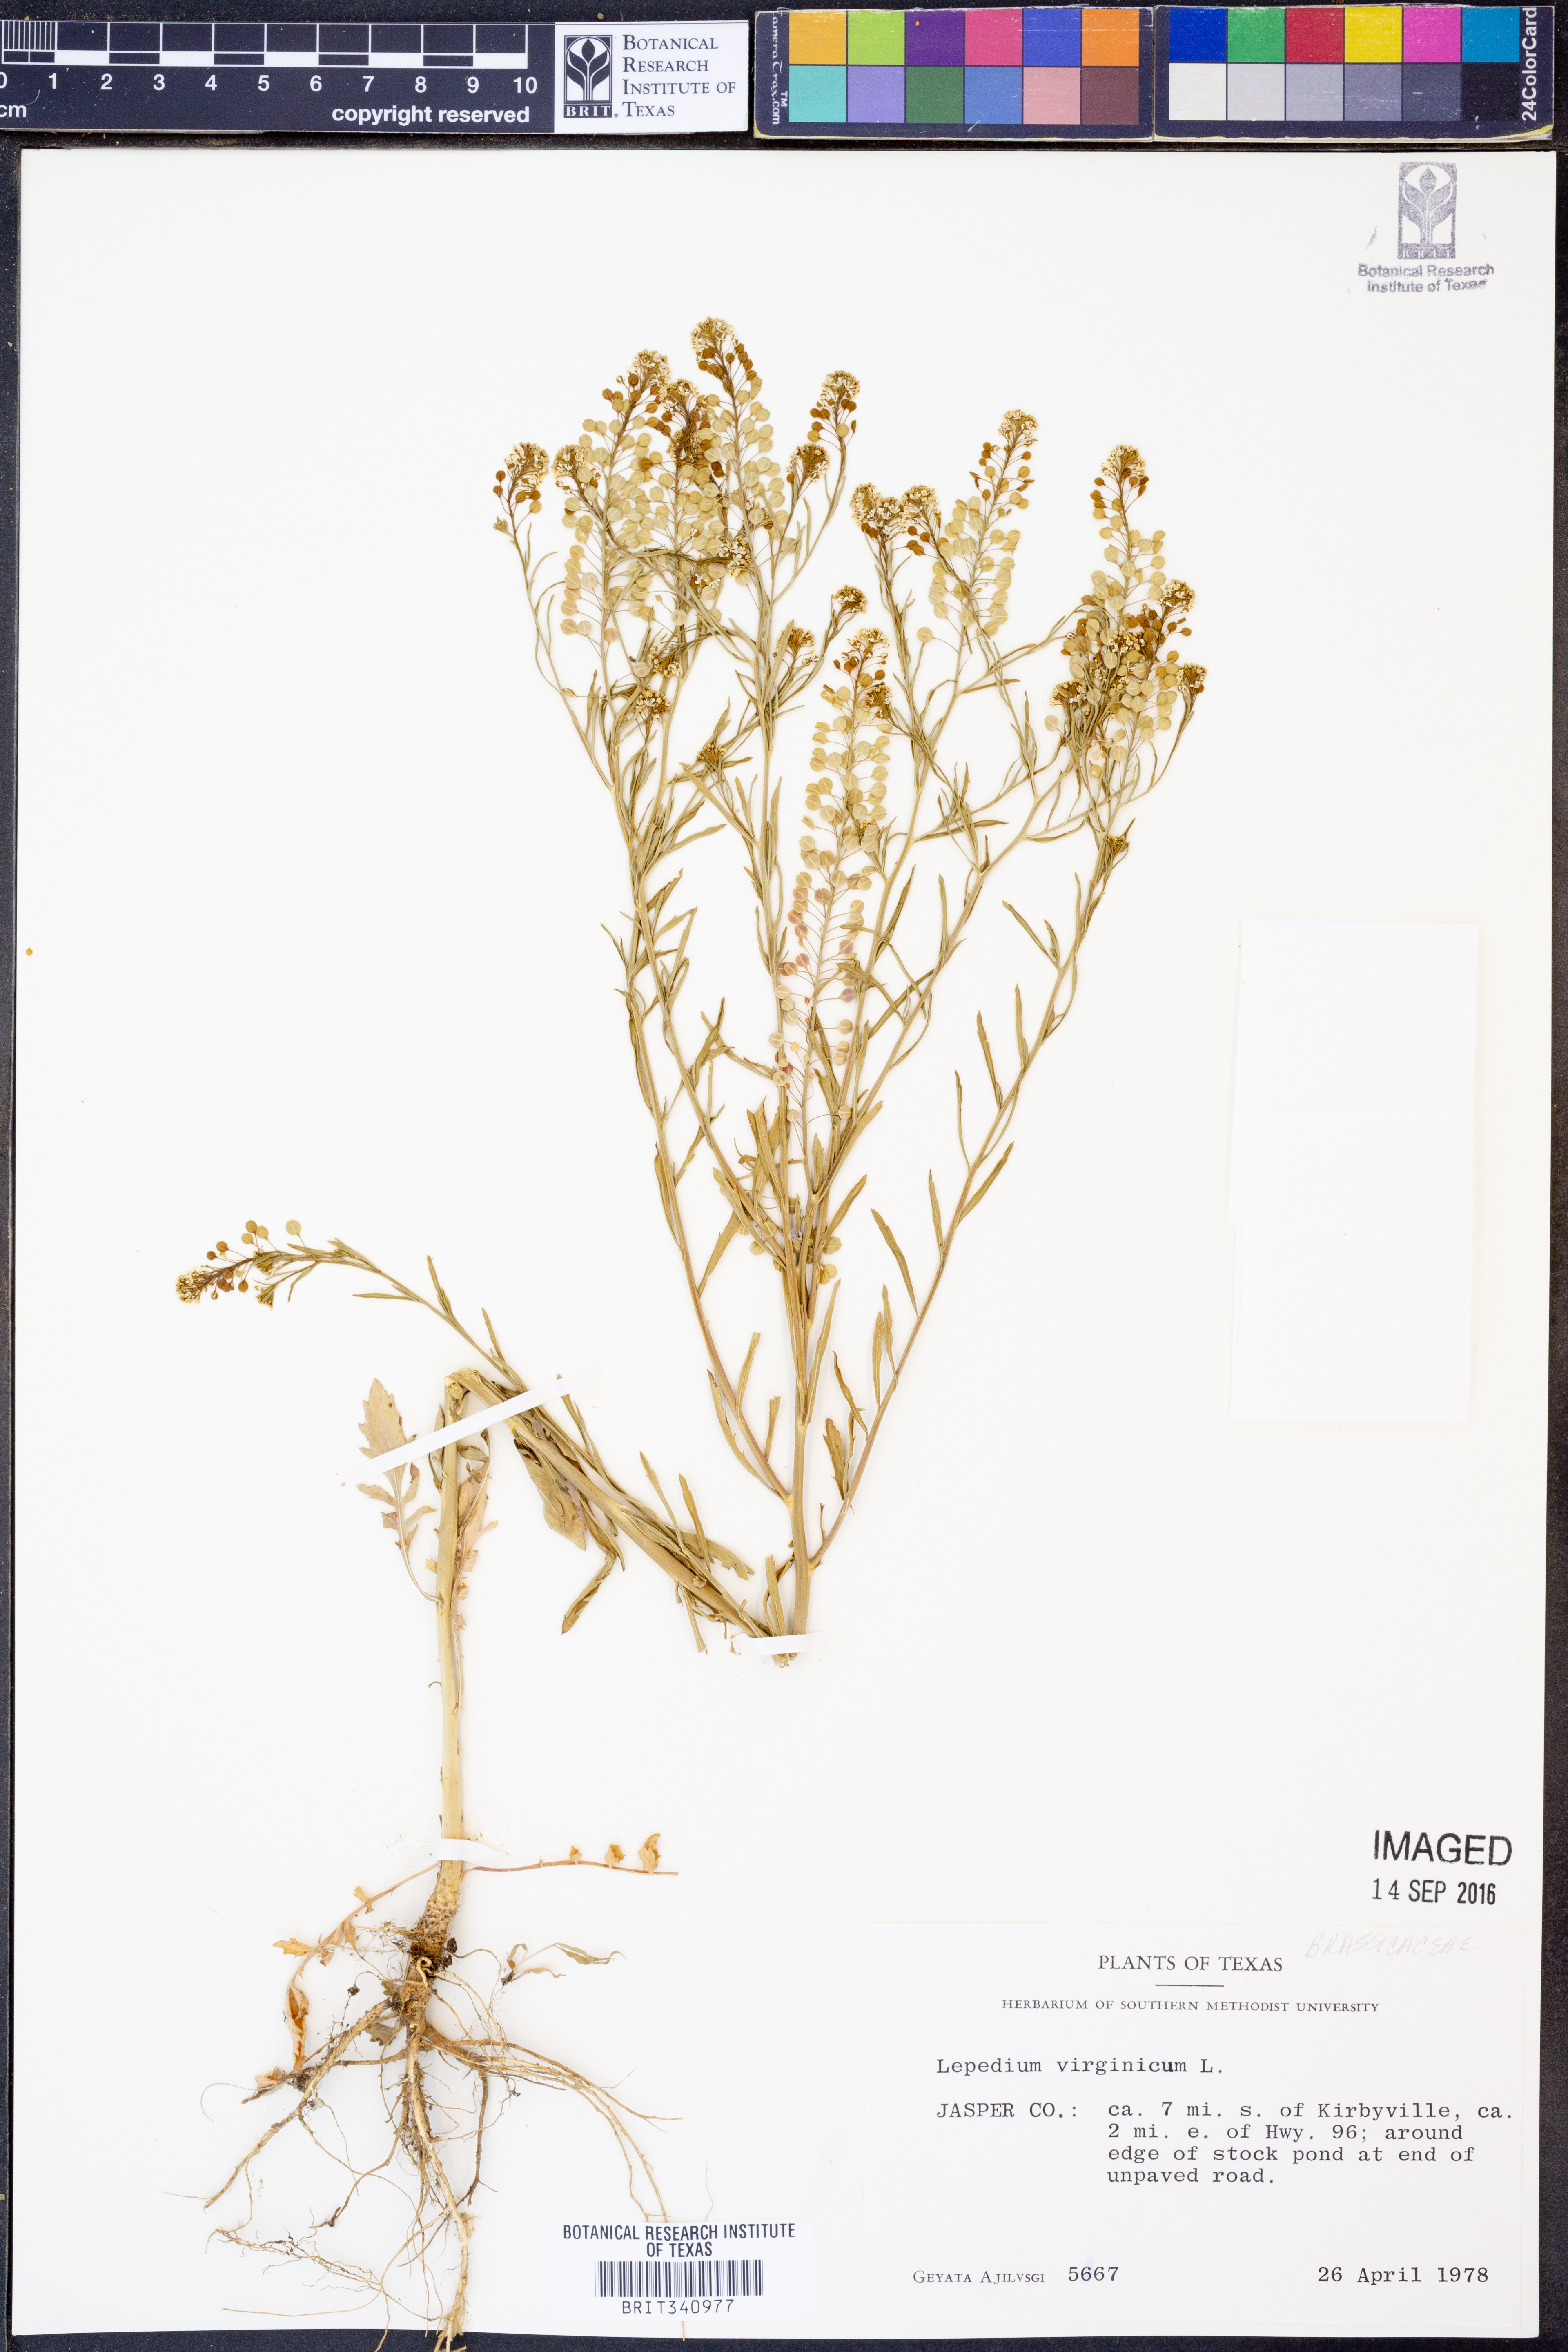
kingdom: Plantae
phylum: Tracheophyta
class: Magnoliopsida
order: Brassicales
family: Brassicaceae
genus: Lepidium
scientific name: Lepidium virginicum
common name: Least pepperwort
